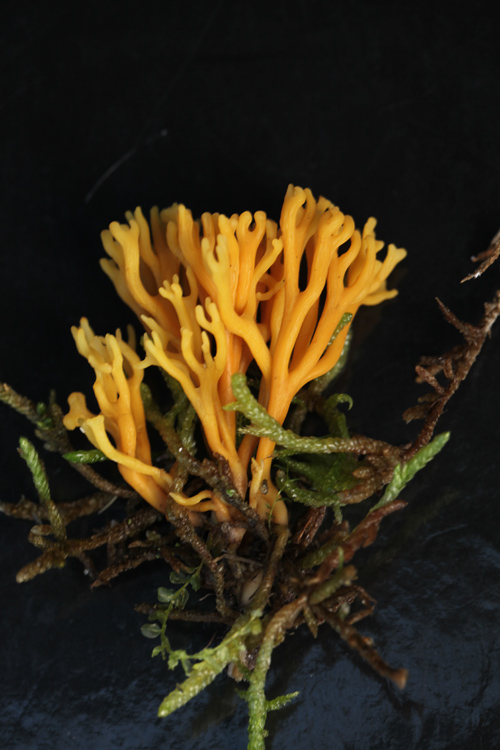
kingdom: Fungi
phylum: Basidiomycota
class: Agaricomycetes
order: Agaricales
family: Clavariaceae
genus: Clavulinopsis
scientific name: Clavulinopsis corniculata
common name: eng-køllesvamp
